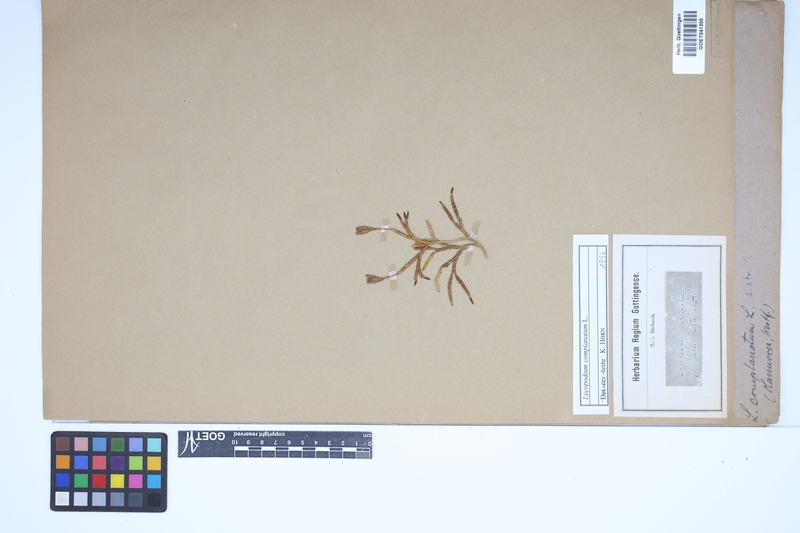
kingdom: Plantae
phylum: Tracheophyta
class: Lycopodiopsida
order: Lycopodiales
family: Lycopodiaceae
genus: Diphasiastrum
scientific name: Diphasiastrum complanatum
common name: Northern running-pine
